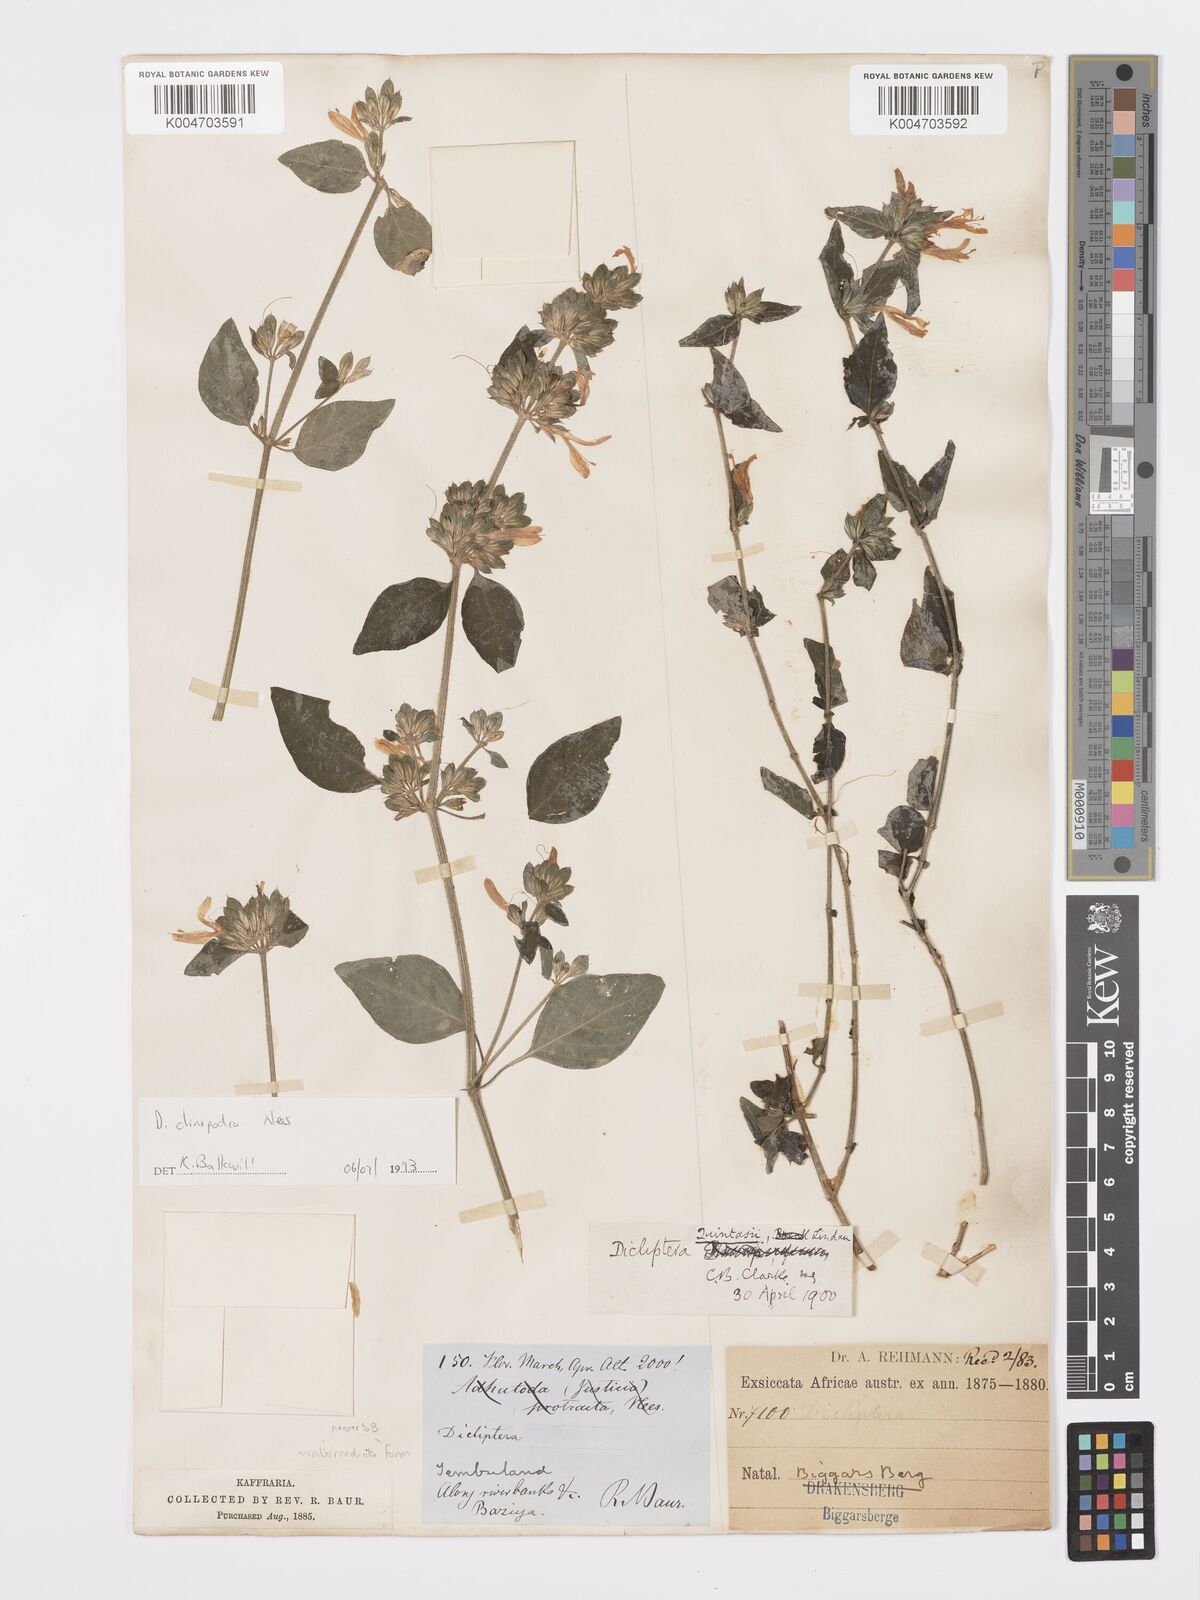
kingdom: Plantae
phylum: Tracheophyta
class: Magnoliopsida
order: Lamiales
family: Acanthaceae
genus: Dicliptera
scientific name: Dicliptera clinopodia
